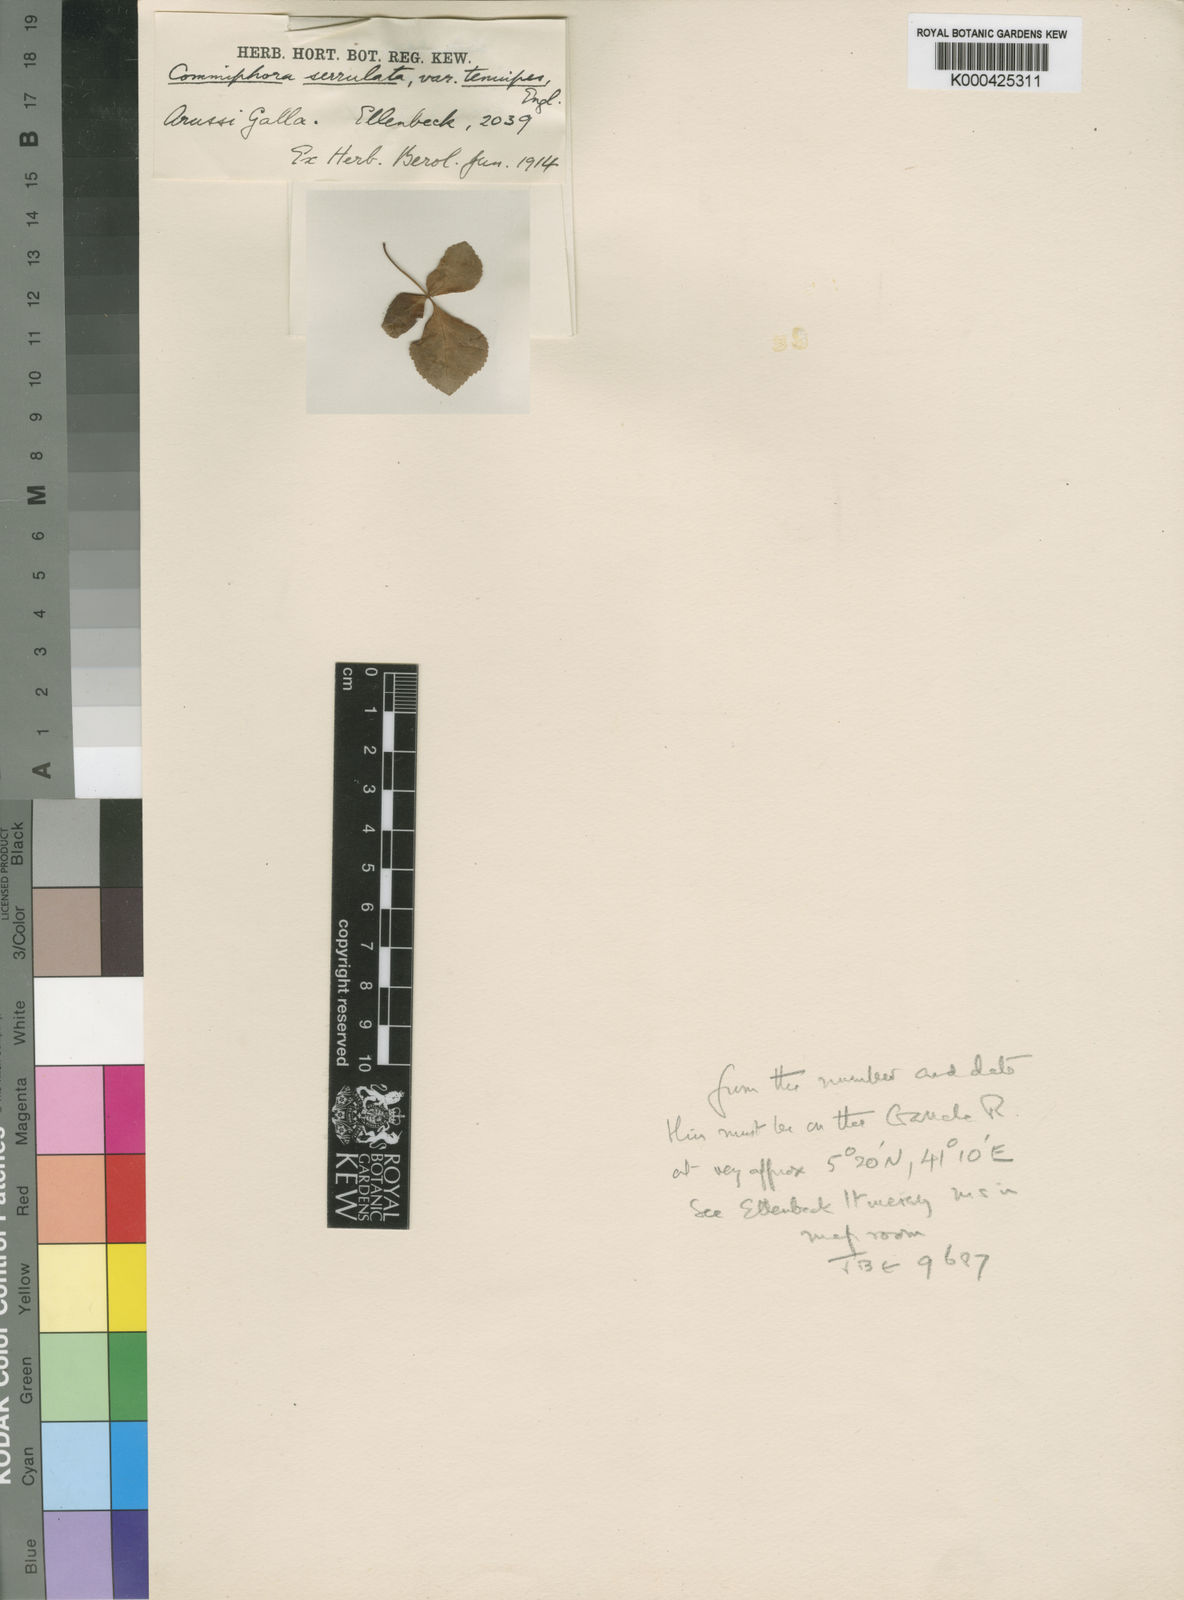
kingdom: Plantae
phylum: Tracheophyta
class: Magnoliopsida
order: Sapindales
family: Burseraceae
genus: Commiphora
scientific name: Commiphora serrulata
